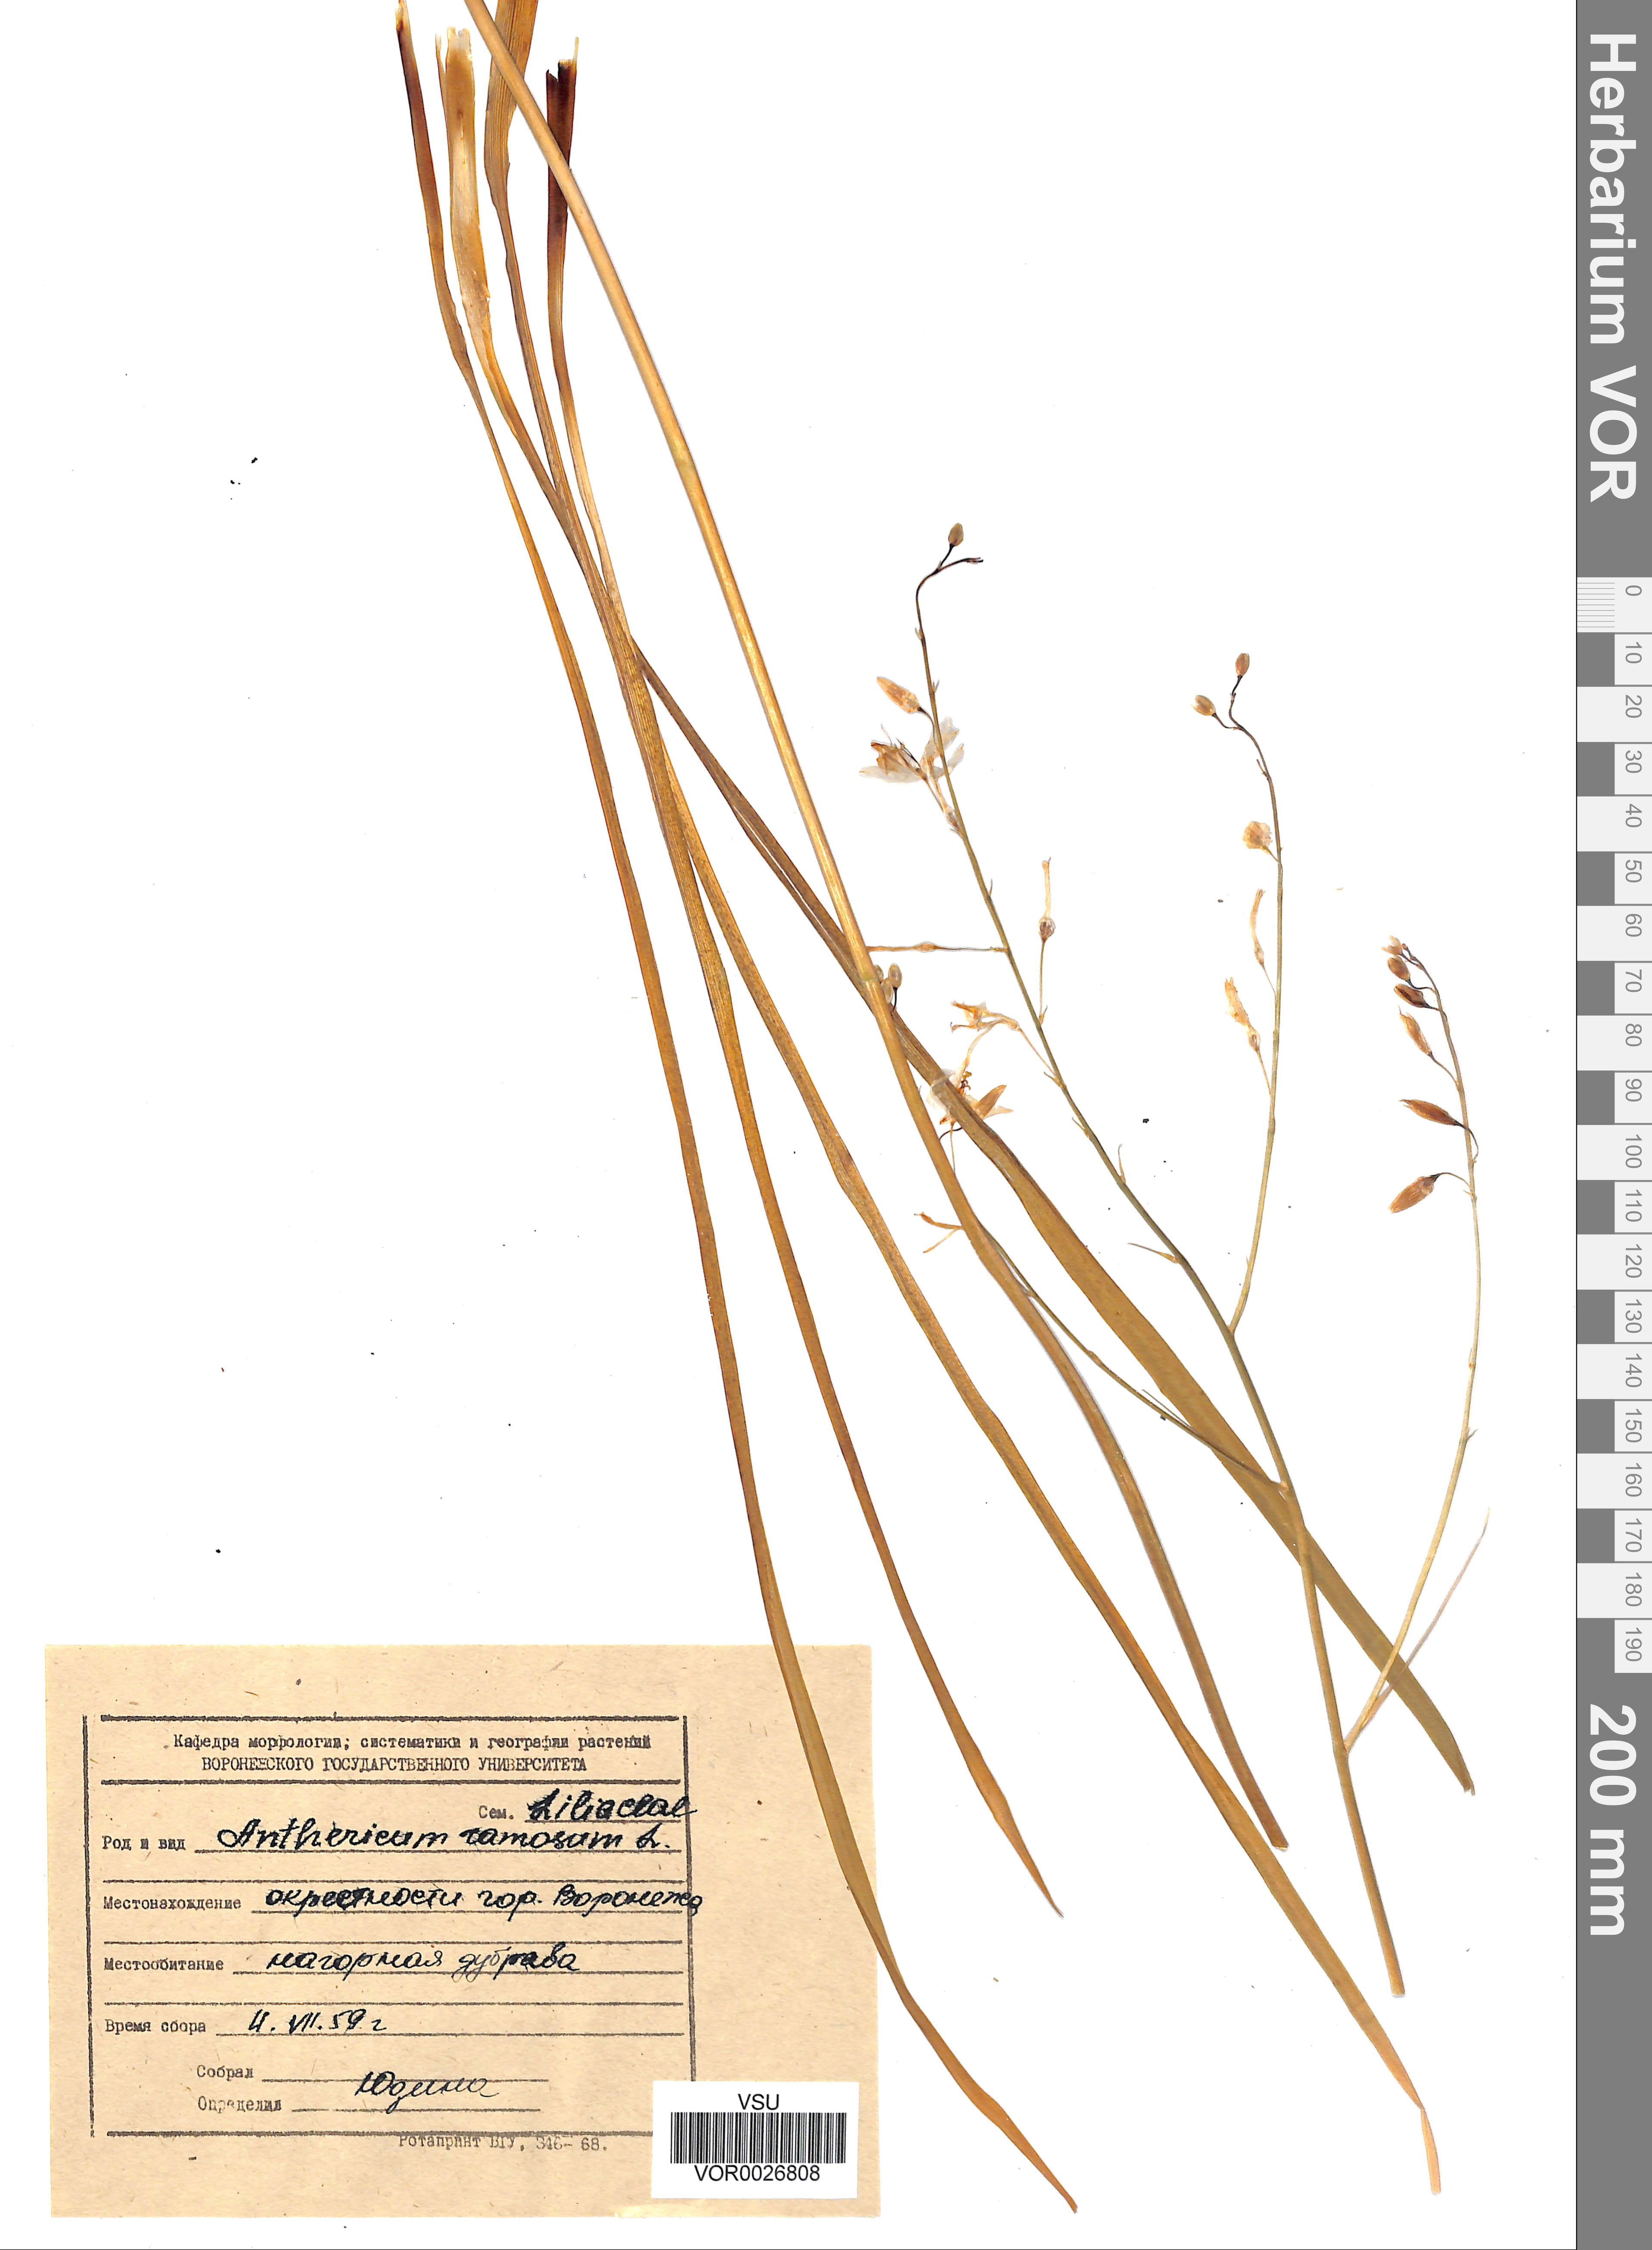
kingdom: Plantae
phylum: Tracheophyta
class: Liliopsida
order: Asparagales
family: Asparagaceae
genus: Anthericum
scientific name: Anthericum ramosum
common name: Branched st. bernard's-lily
